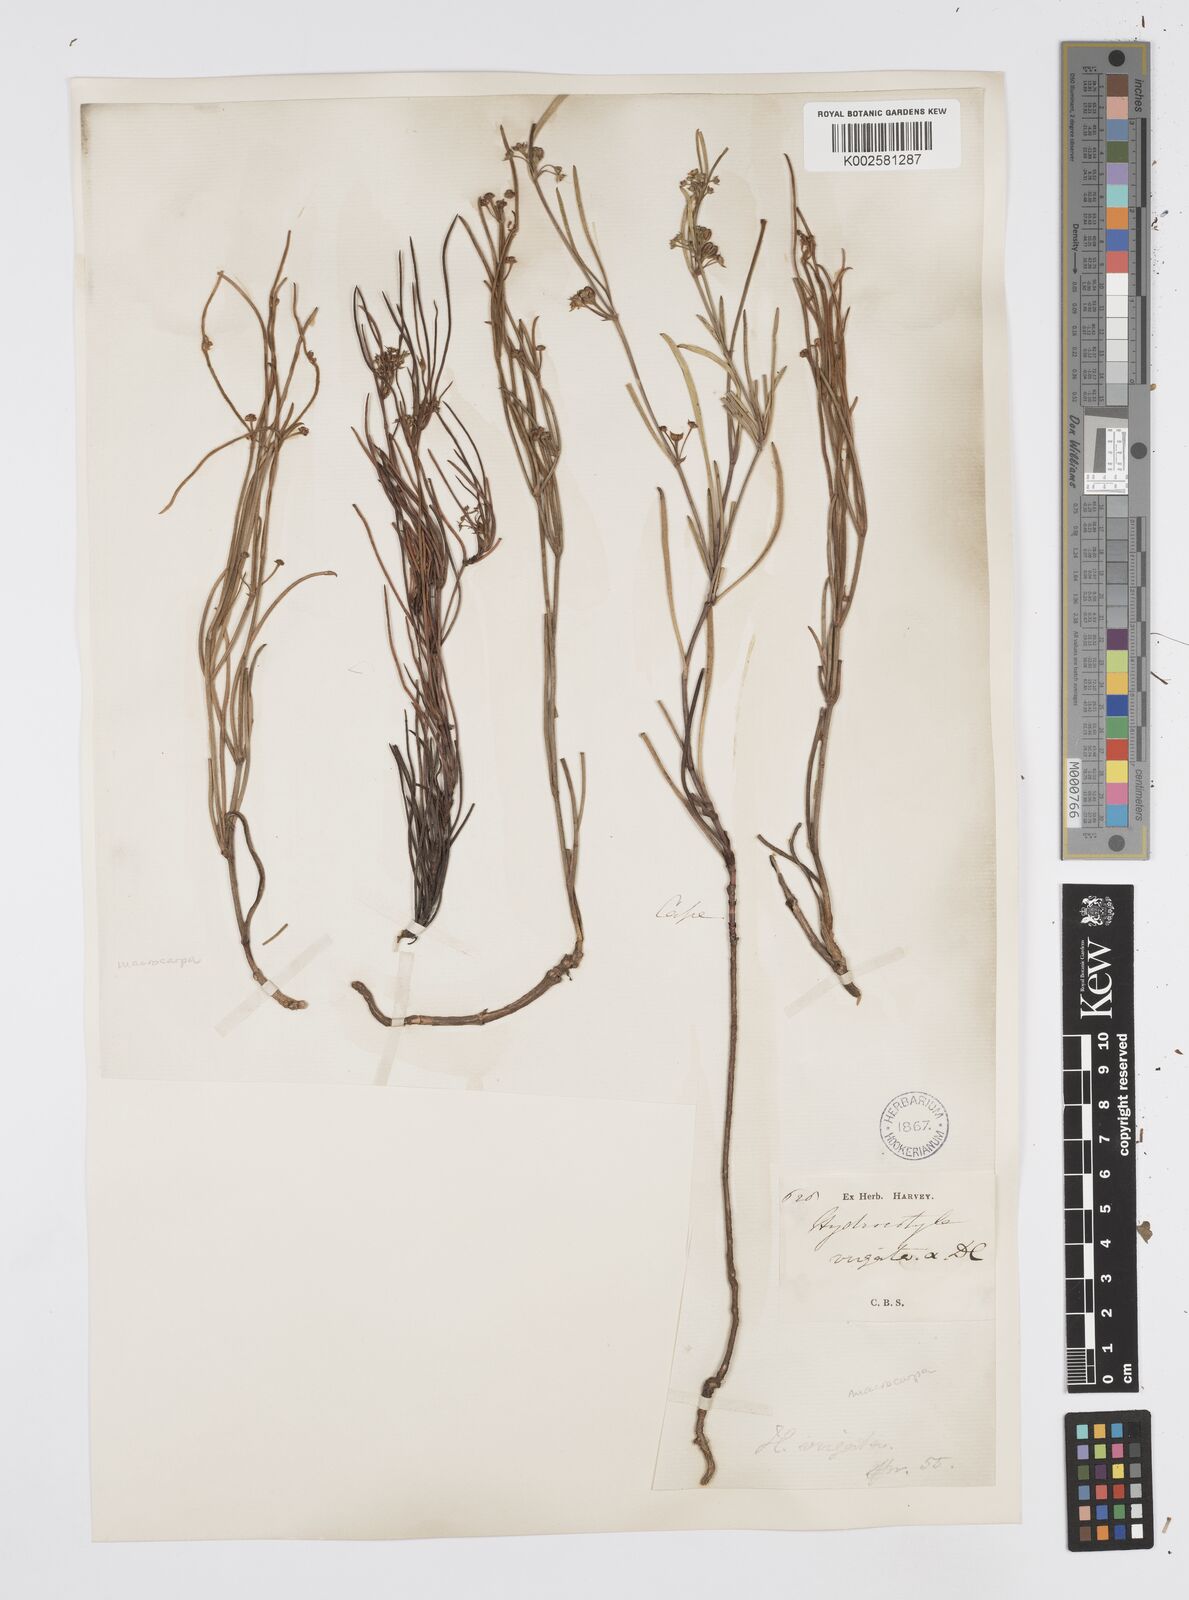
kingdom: Plantae
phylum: Tracheophyta
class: Magnoliopsida
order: Apiales
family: Apiaceae
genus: Centella
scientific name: Centella macrocarpa
